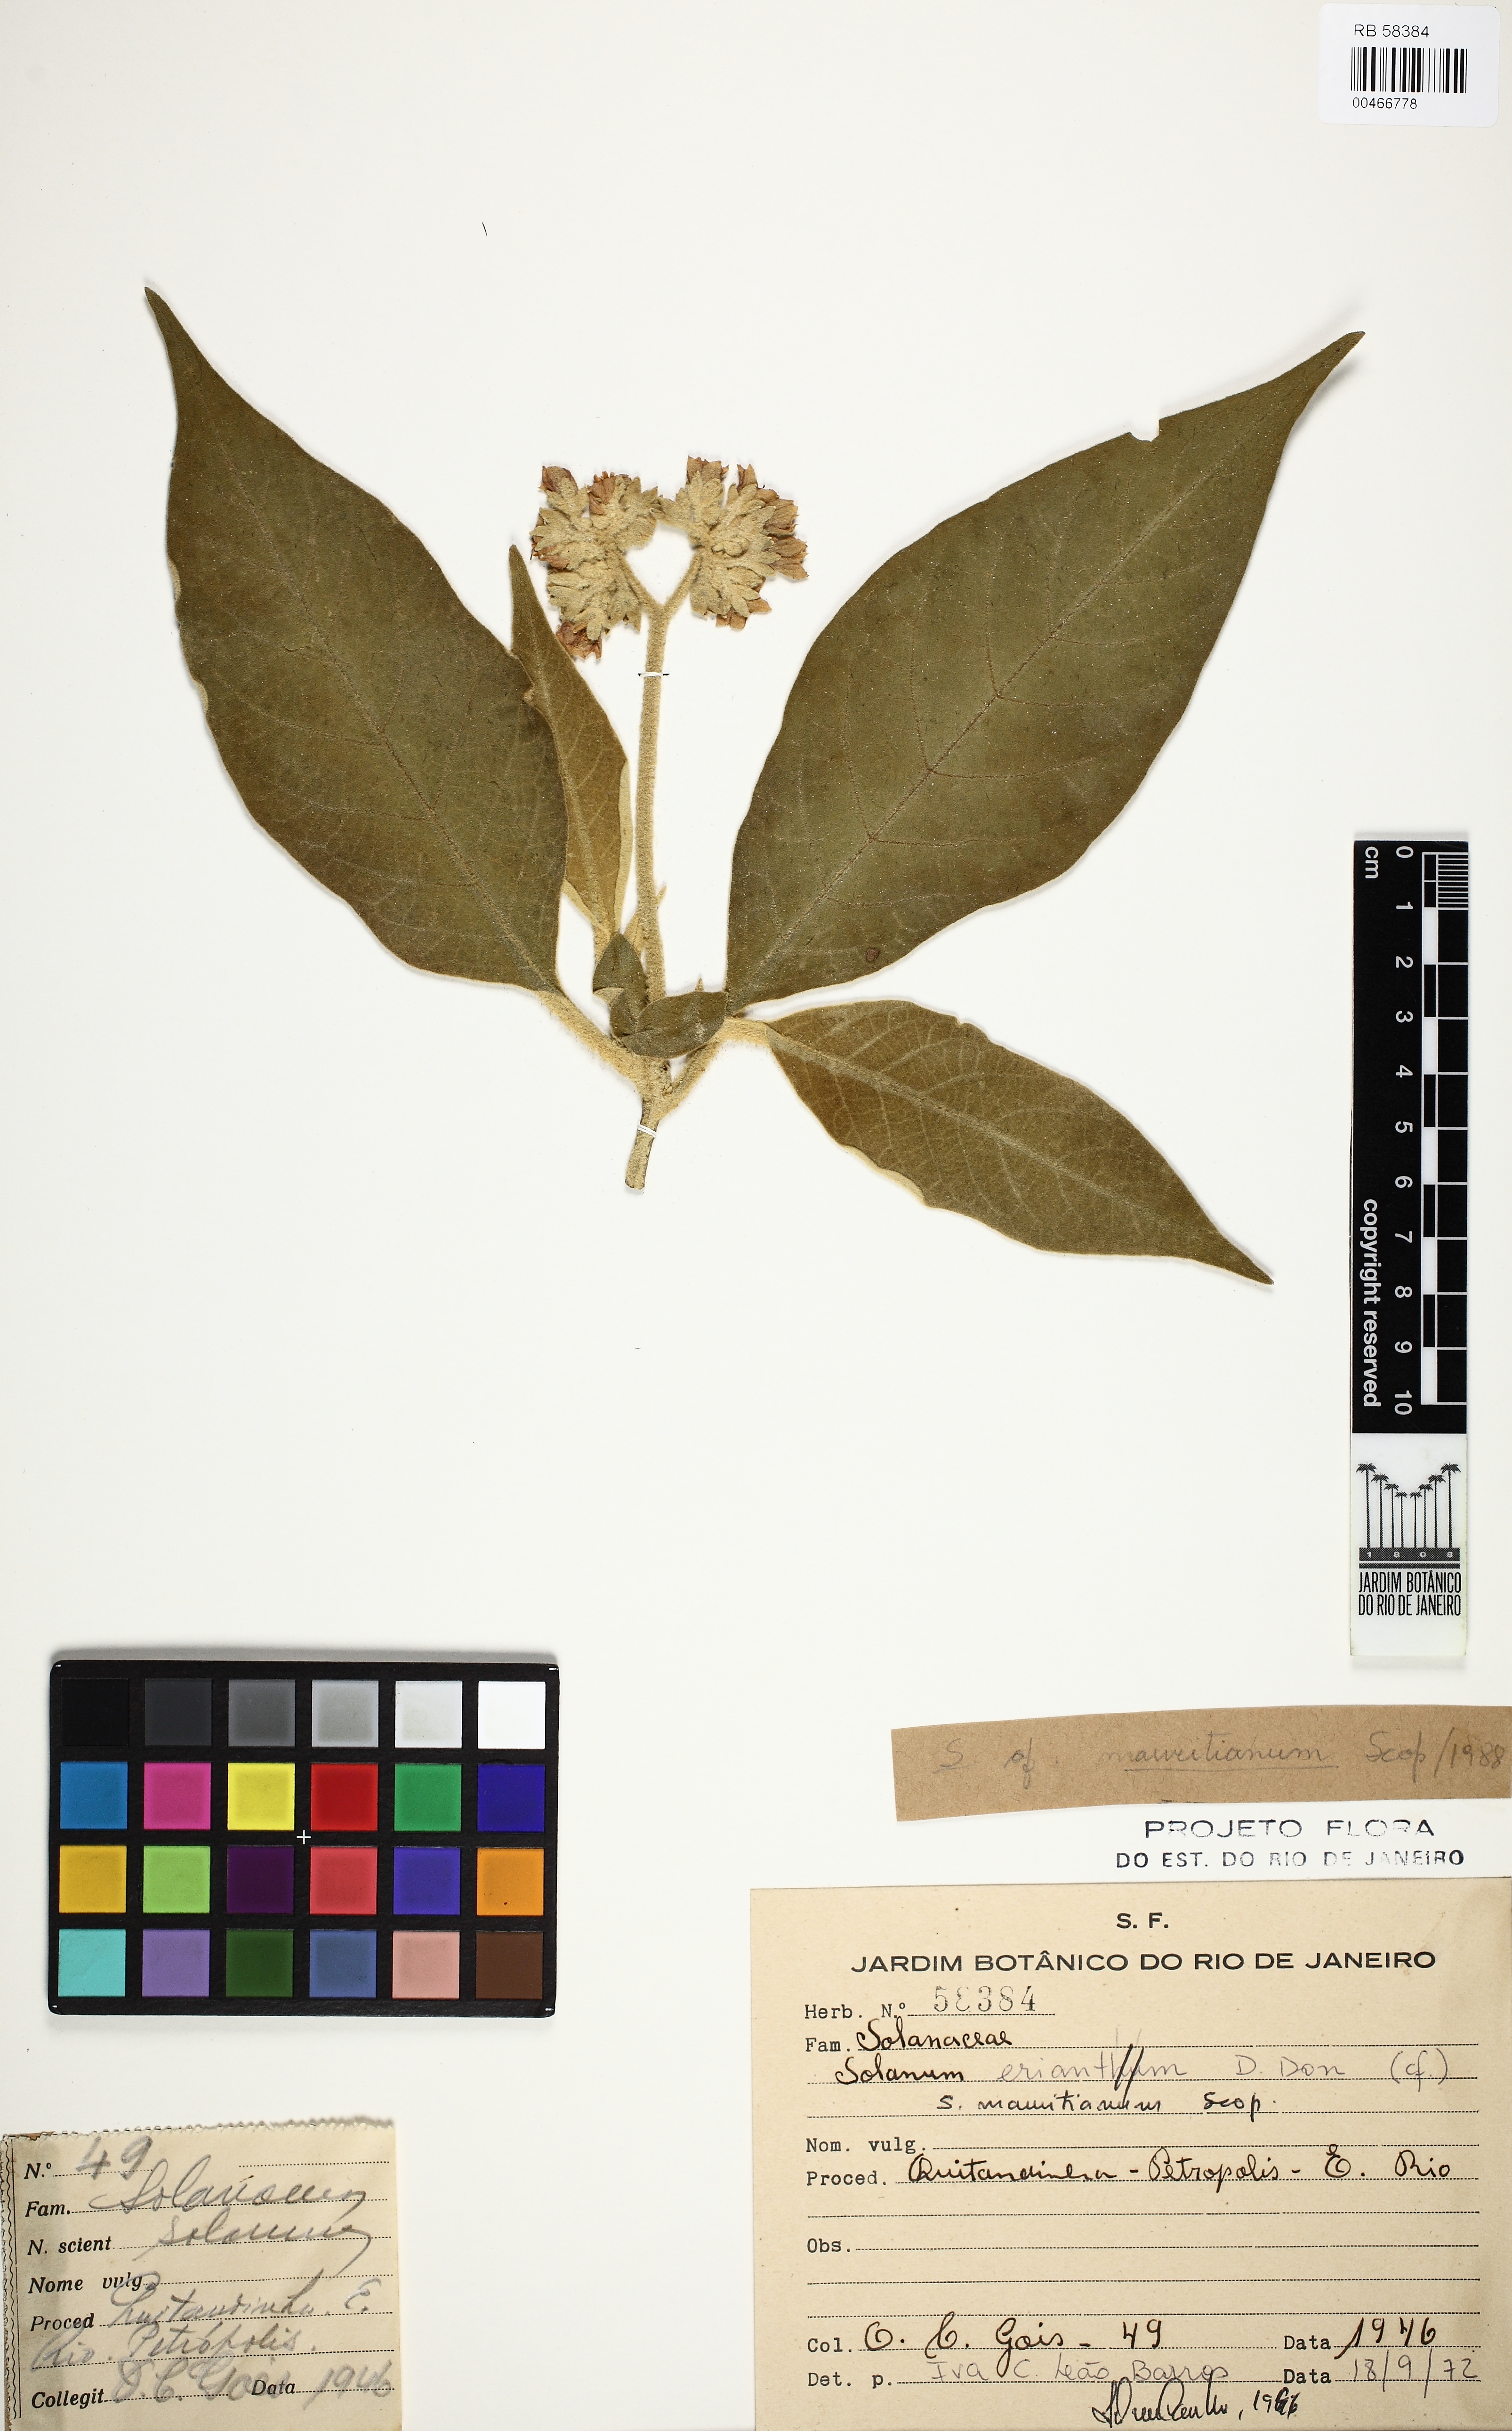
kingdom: Plantae
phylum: Tracheophyta
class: Magnoliopsida
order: Solanales
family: Solanaceae
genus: Solanum
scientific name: Solanum mauritianum
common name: Earleaf nightshade
